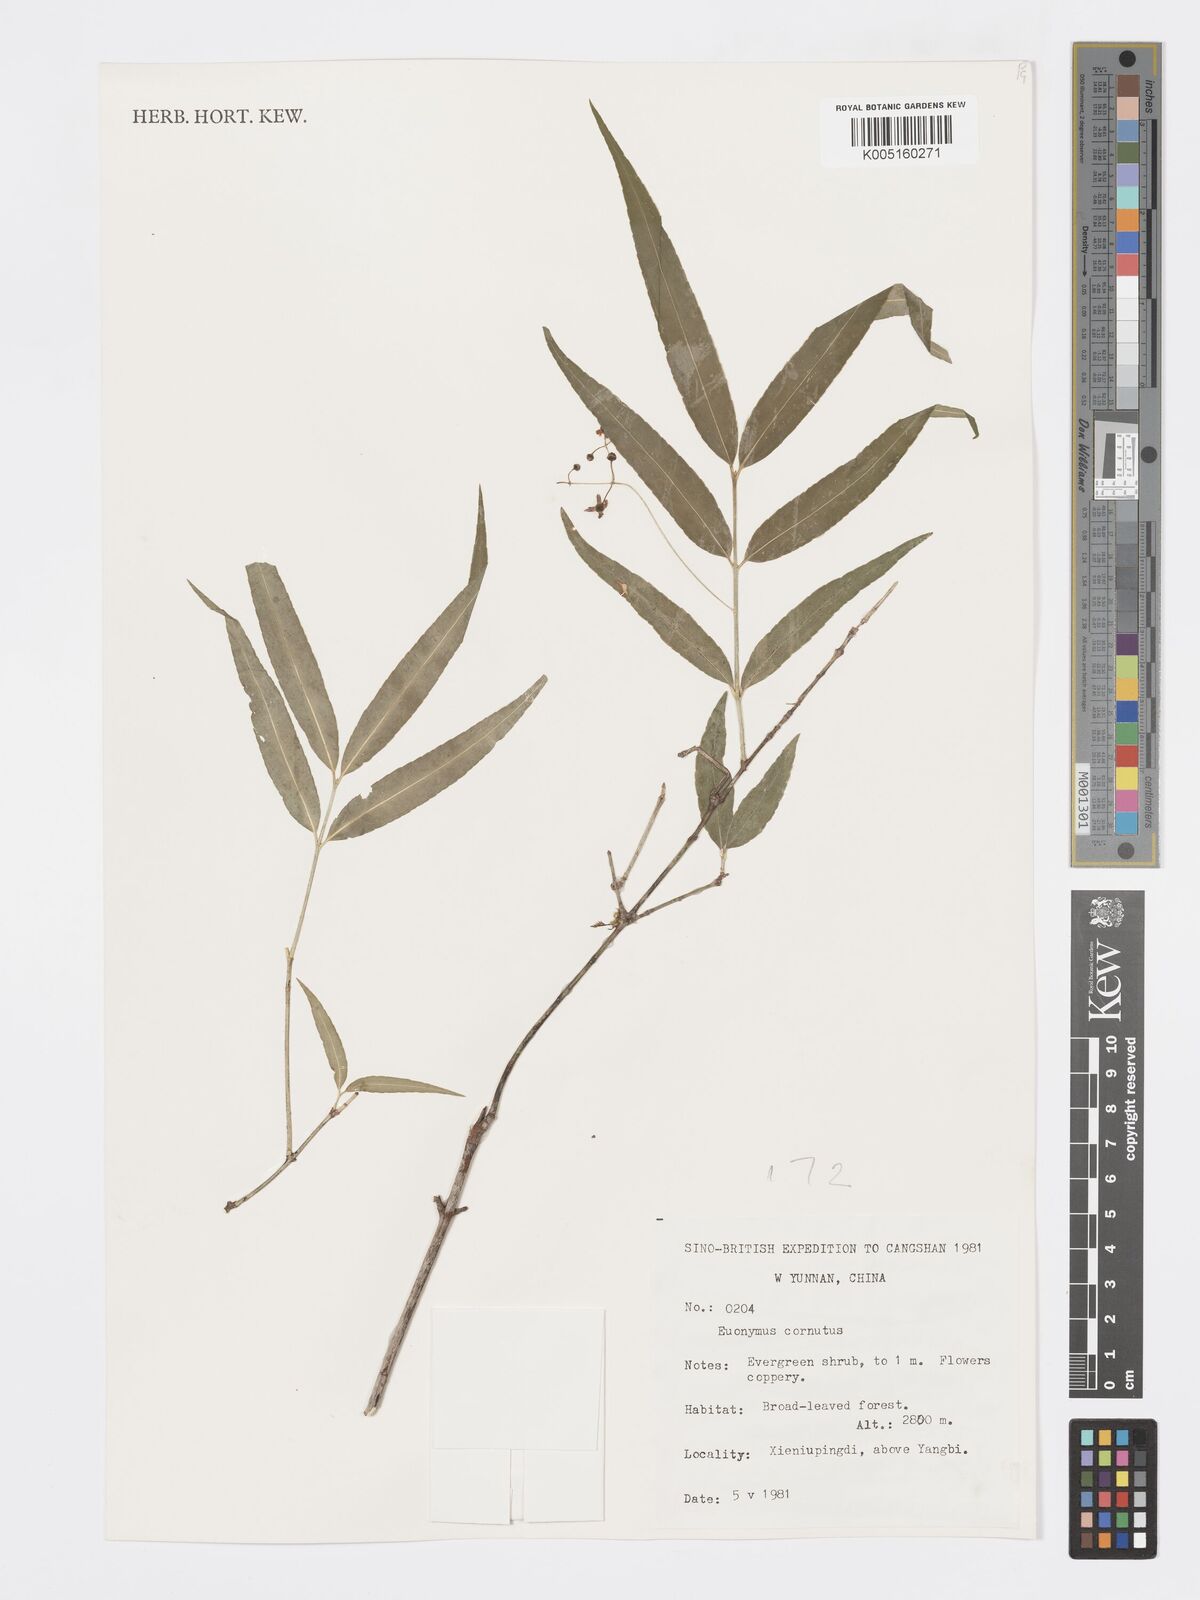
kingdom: Plantae
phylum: Tracheophyta
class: Magnoliopsida
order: Celastrales
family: Celastraceae
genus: Euonymus
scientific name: Euonymus cornutus
